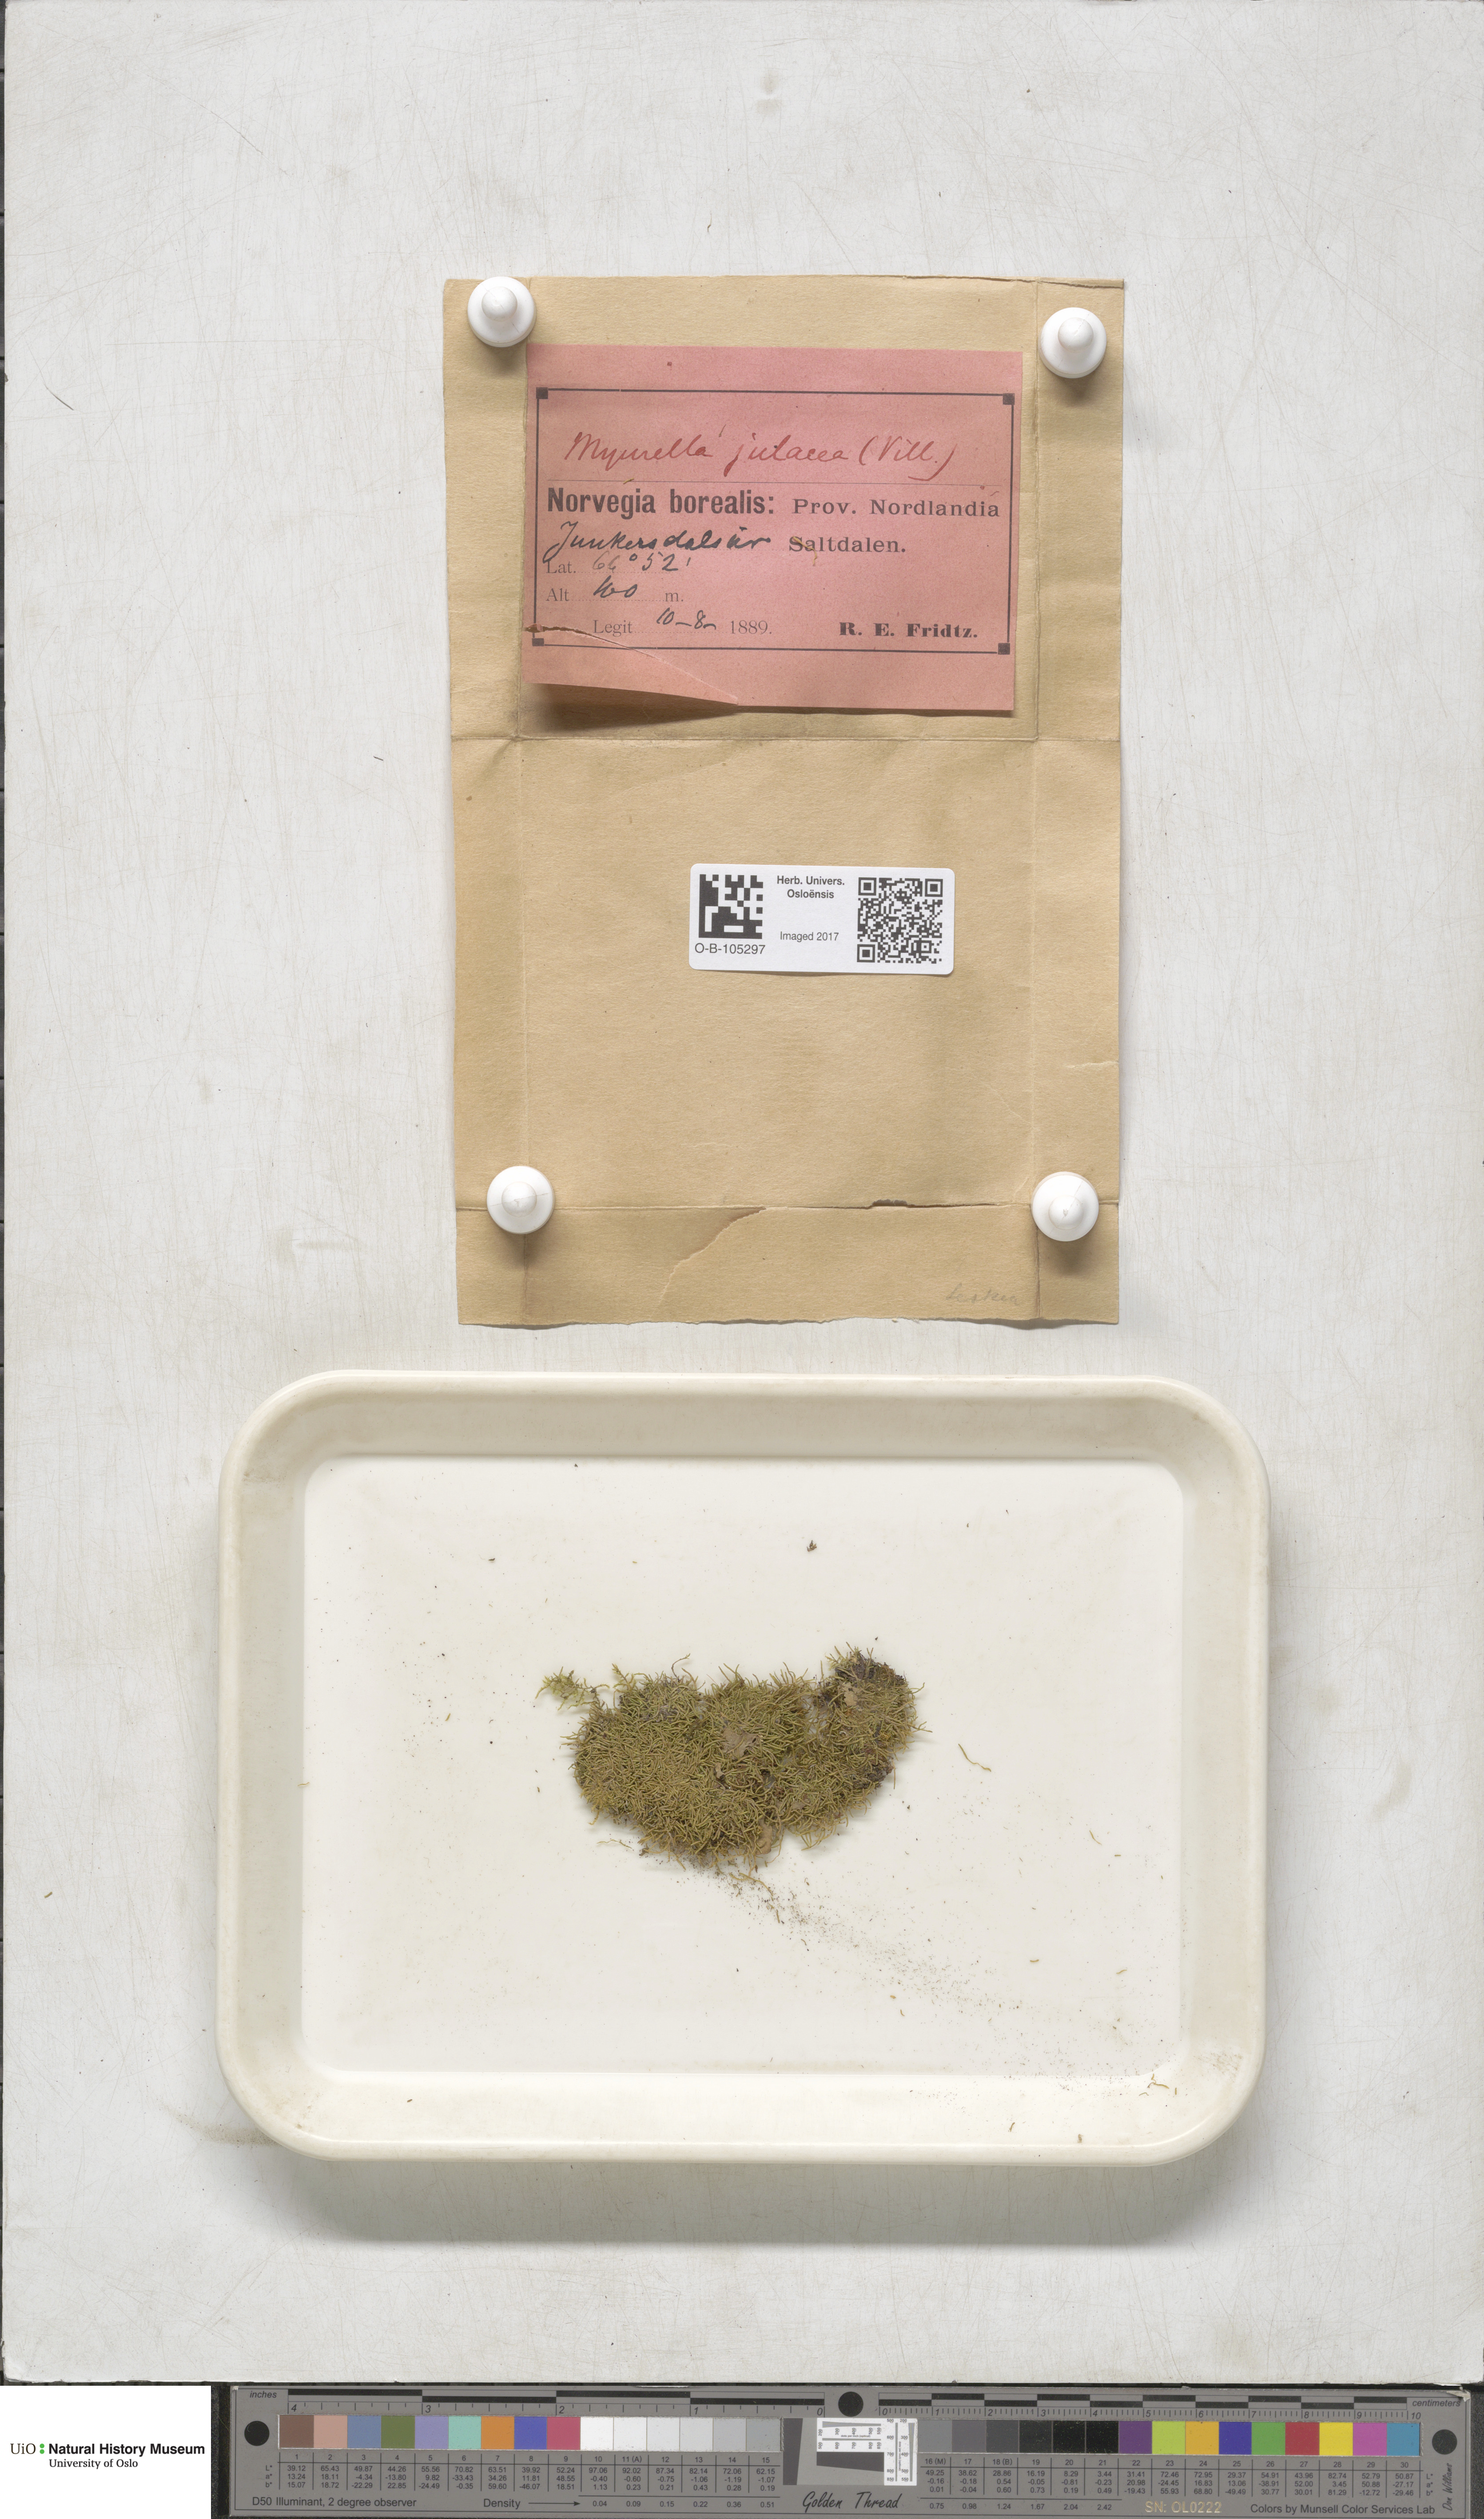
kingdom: Plantae
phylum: Bryophyta
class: Bryopsida
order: Hypnales
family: Plagiotheciaceae
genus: Myurella
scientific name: Myurella julacea
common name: Small mousetail moss
